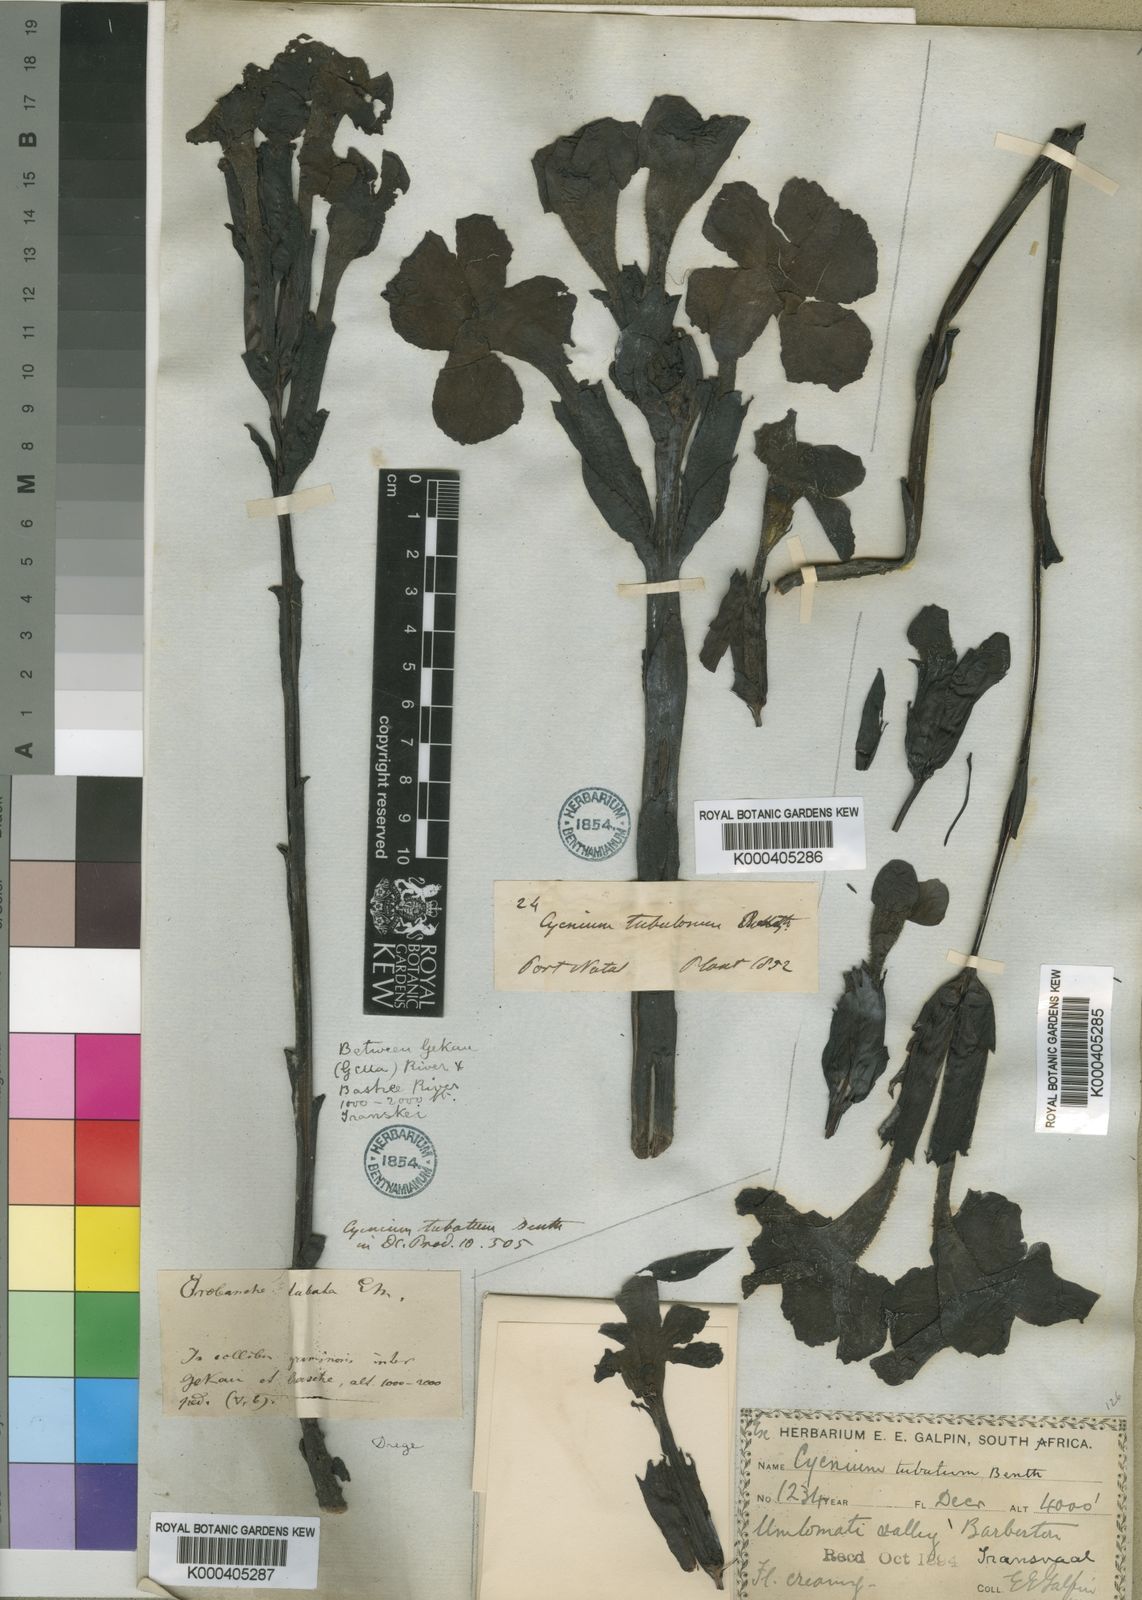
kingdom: Plantae
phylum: Tracheophyta
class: Magnoliopsida
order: Lamiales
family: Orobanchaceae
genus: Harveya
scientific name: Harveya speciosa
